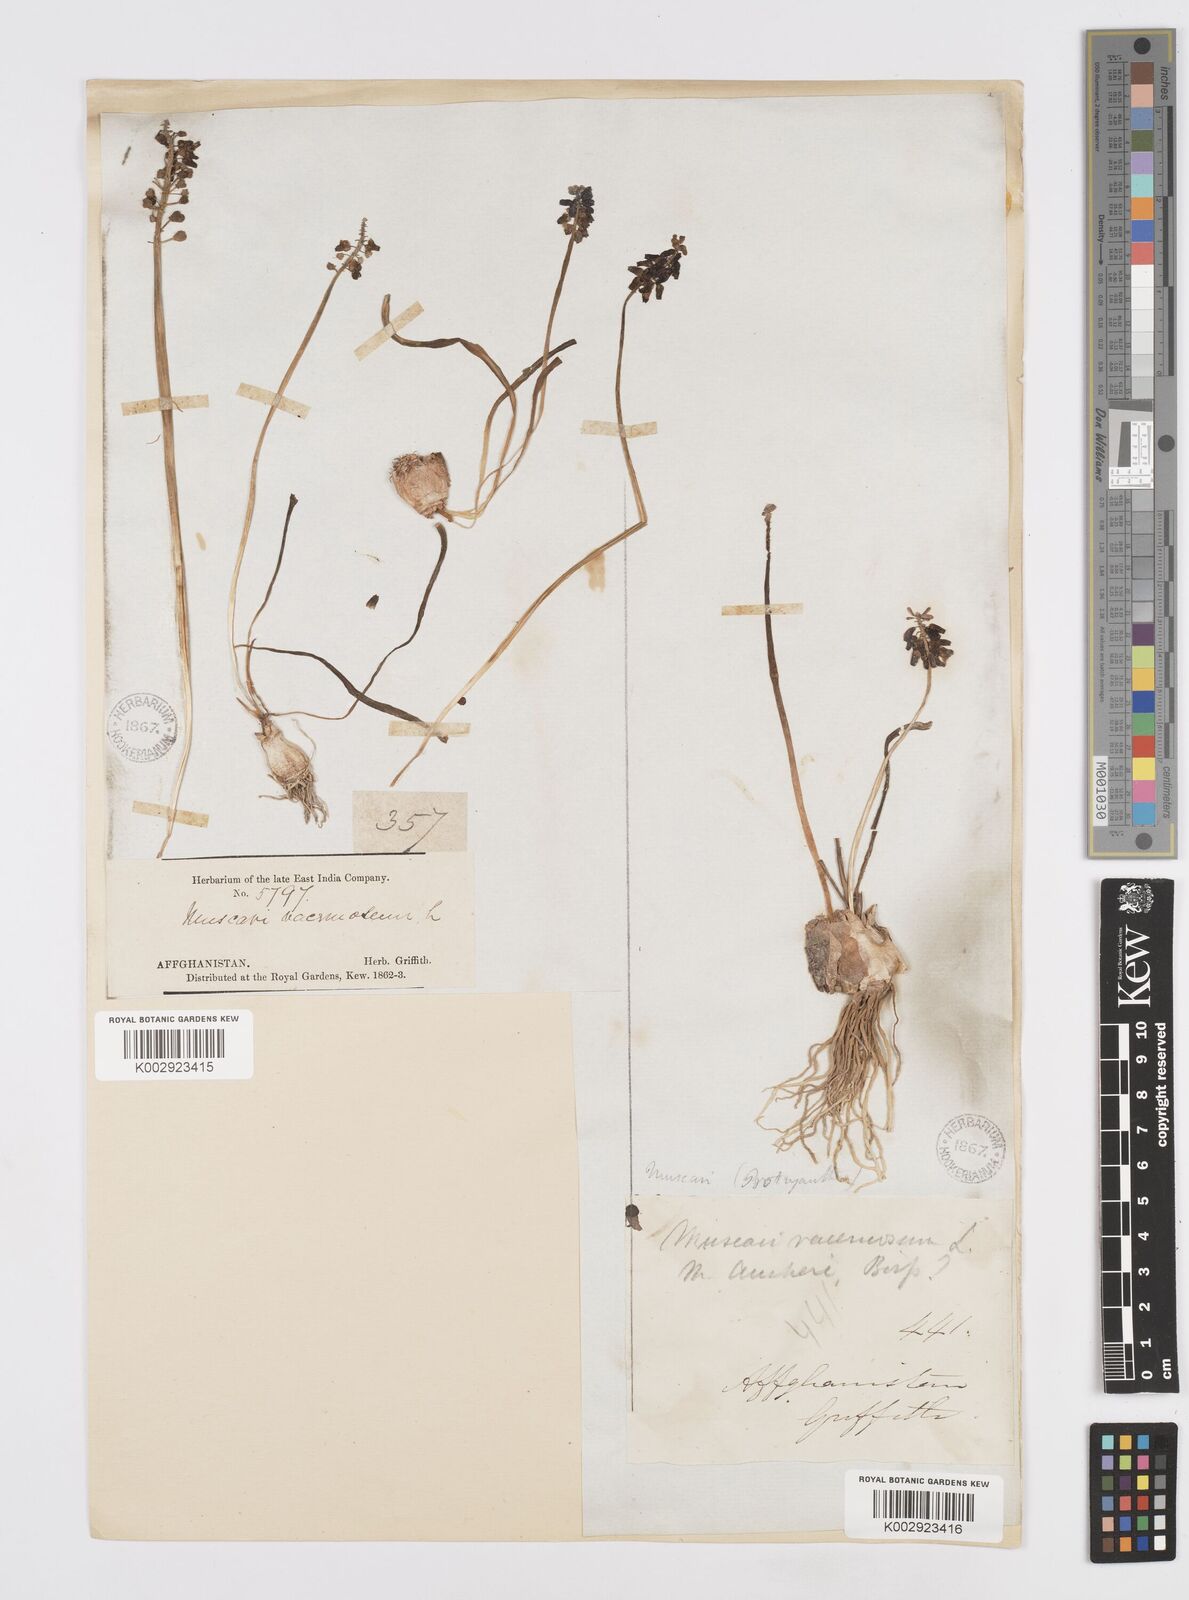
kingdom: Plantae
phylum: Tracheophyta
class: Liliopsida
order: Asparagales
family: Asparagaceae
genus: Muscari
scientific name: Muscari neglectum
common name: Grape-hyacinth
